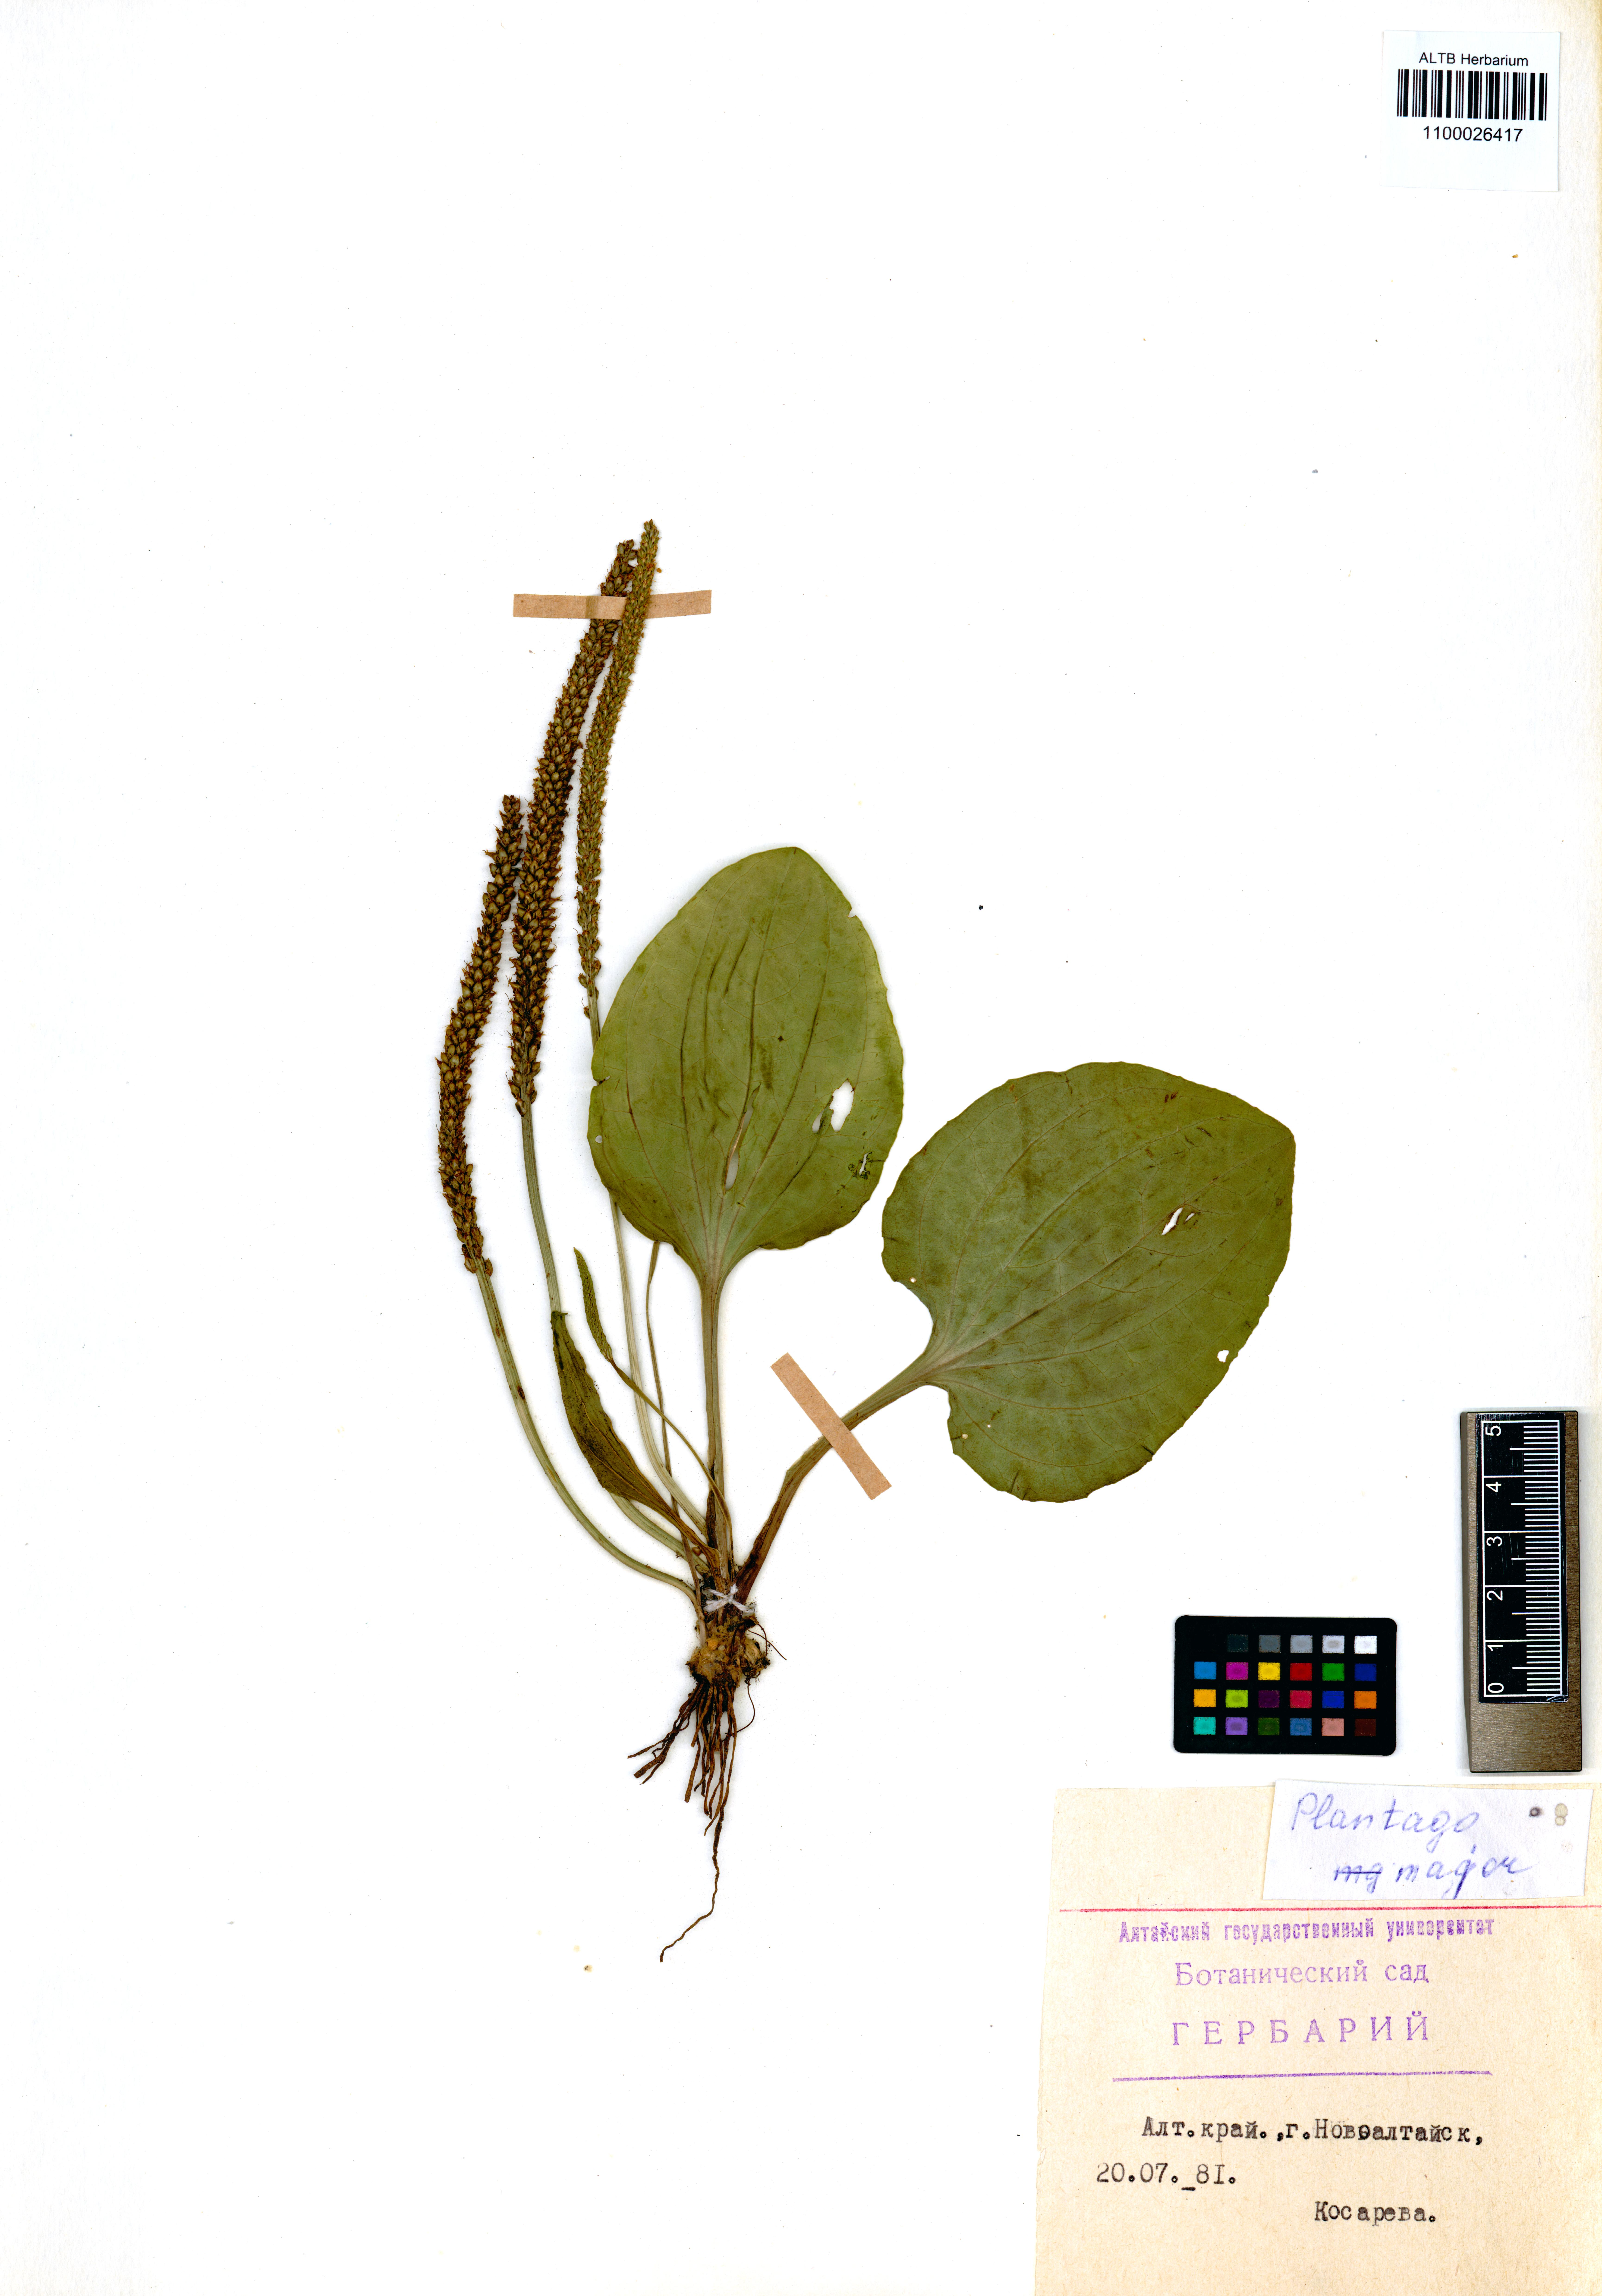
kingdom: Plantae
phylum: Tracheophyta
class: Magnoliopsida
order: Lamiales
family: Plantaginaceae
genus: Plantago
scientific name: Plantago major
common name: Common plantain
